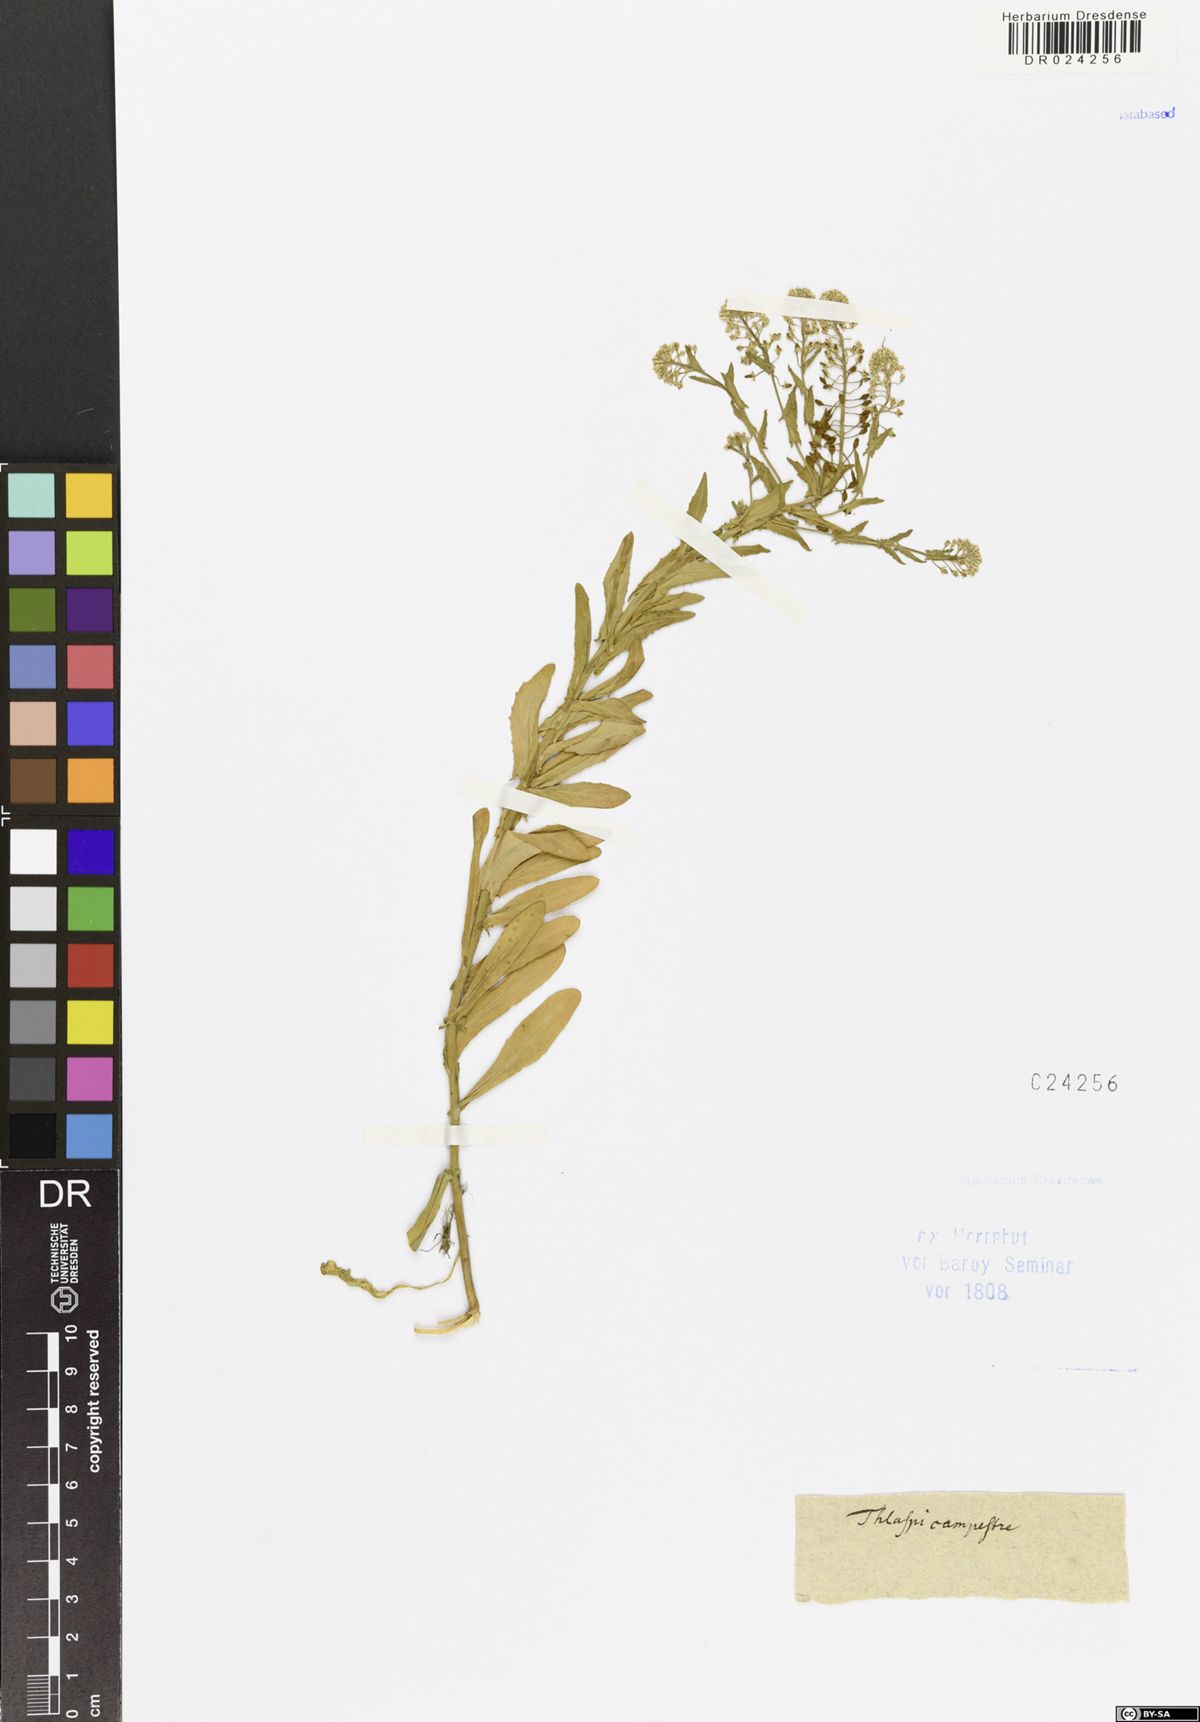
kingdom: Plantae
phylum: Tracheophyta
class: Magnoliopsida
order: Brassicales
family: Brassicaceae
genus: Lepidium
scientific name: Lepidium campestre
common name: Field pepperwort
